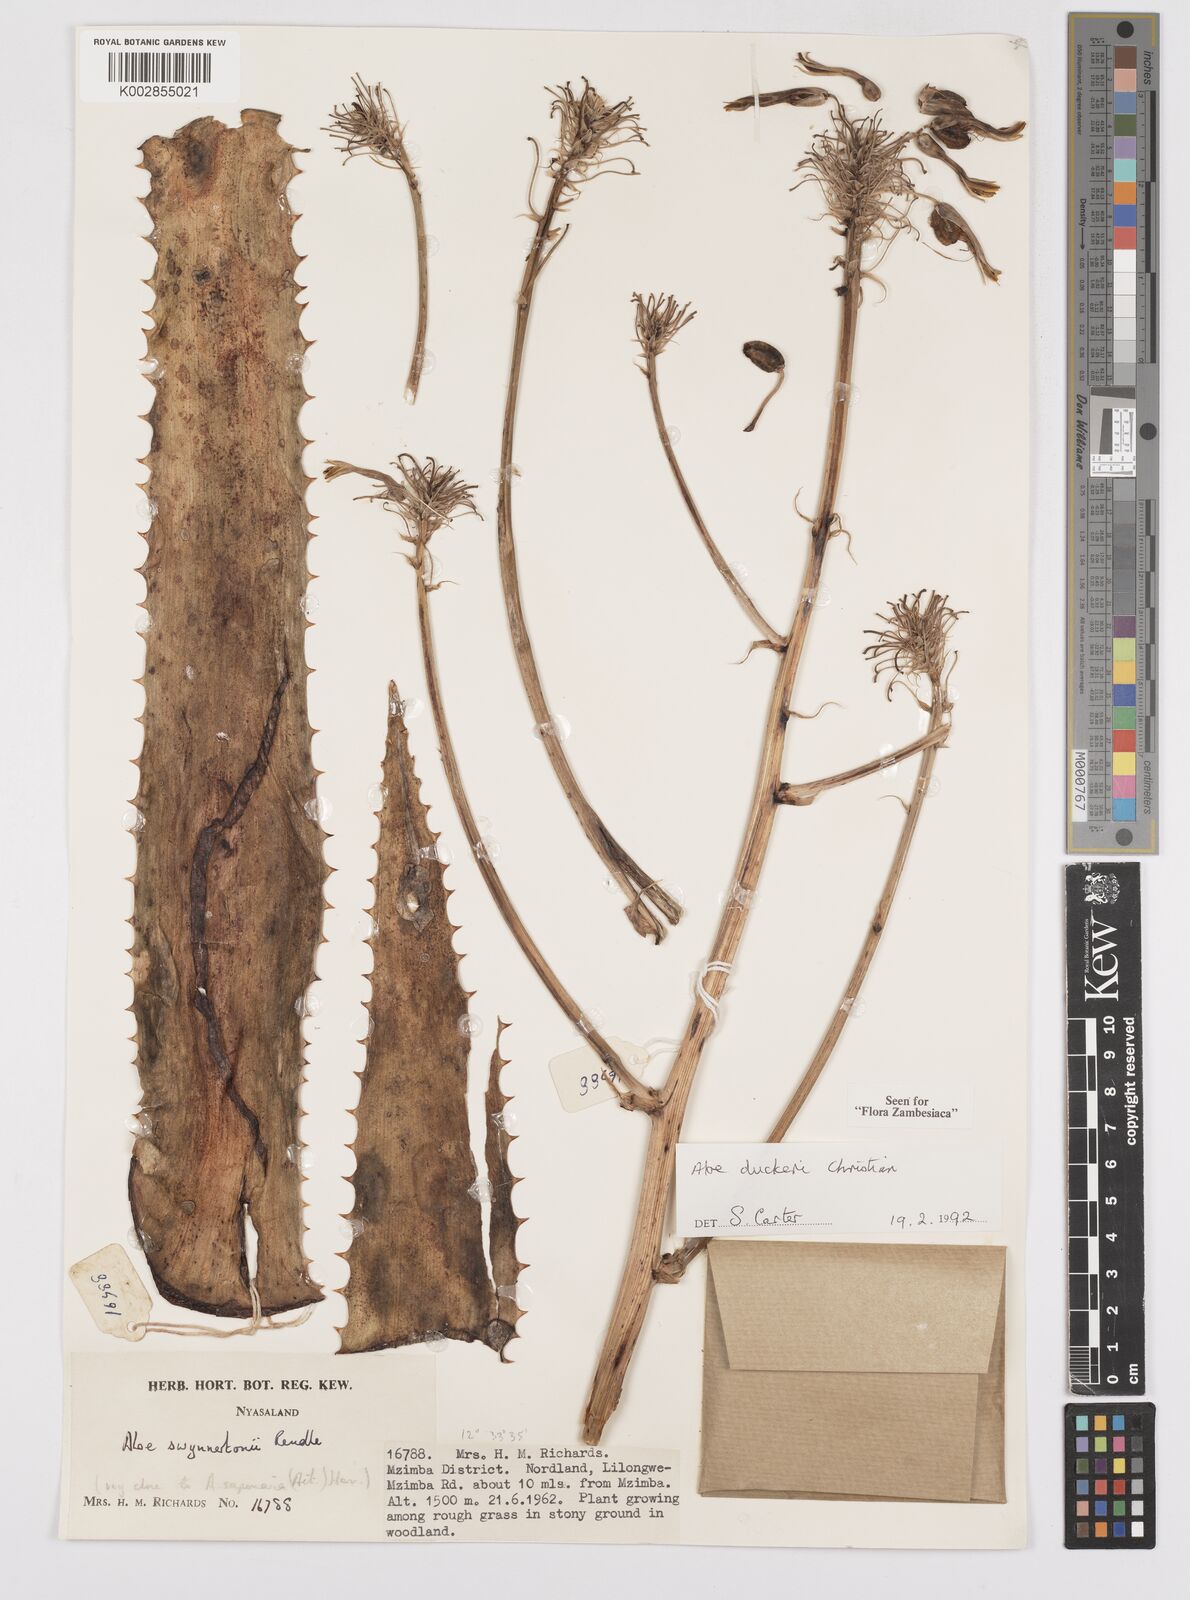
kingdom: Plantae
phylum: Tracheophyta
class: Liliopsida
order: Asparagales
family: Asphodelaceae
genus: Aloe
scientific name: Aloe duckeri
